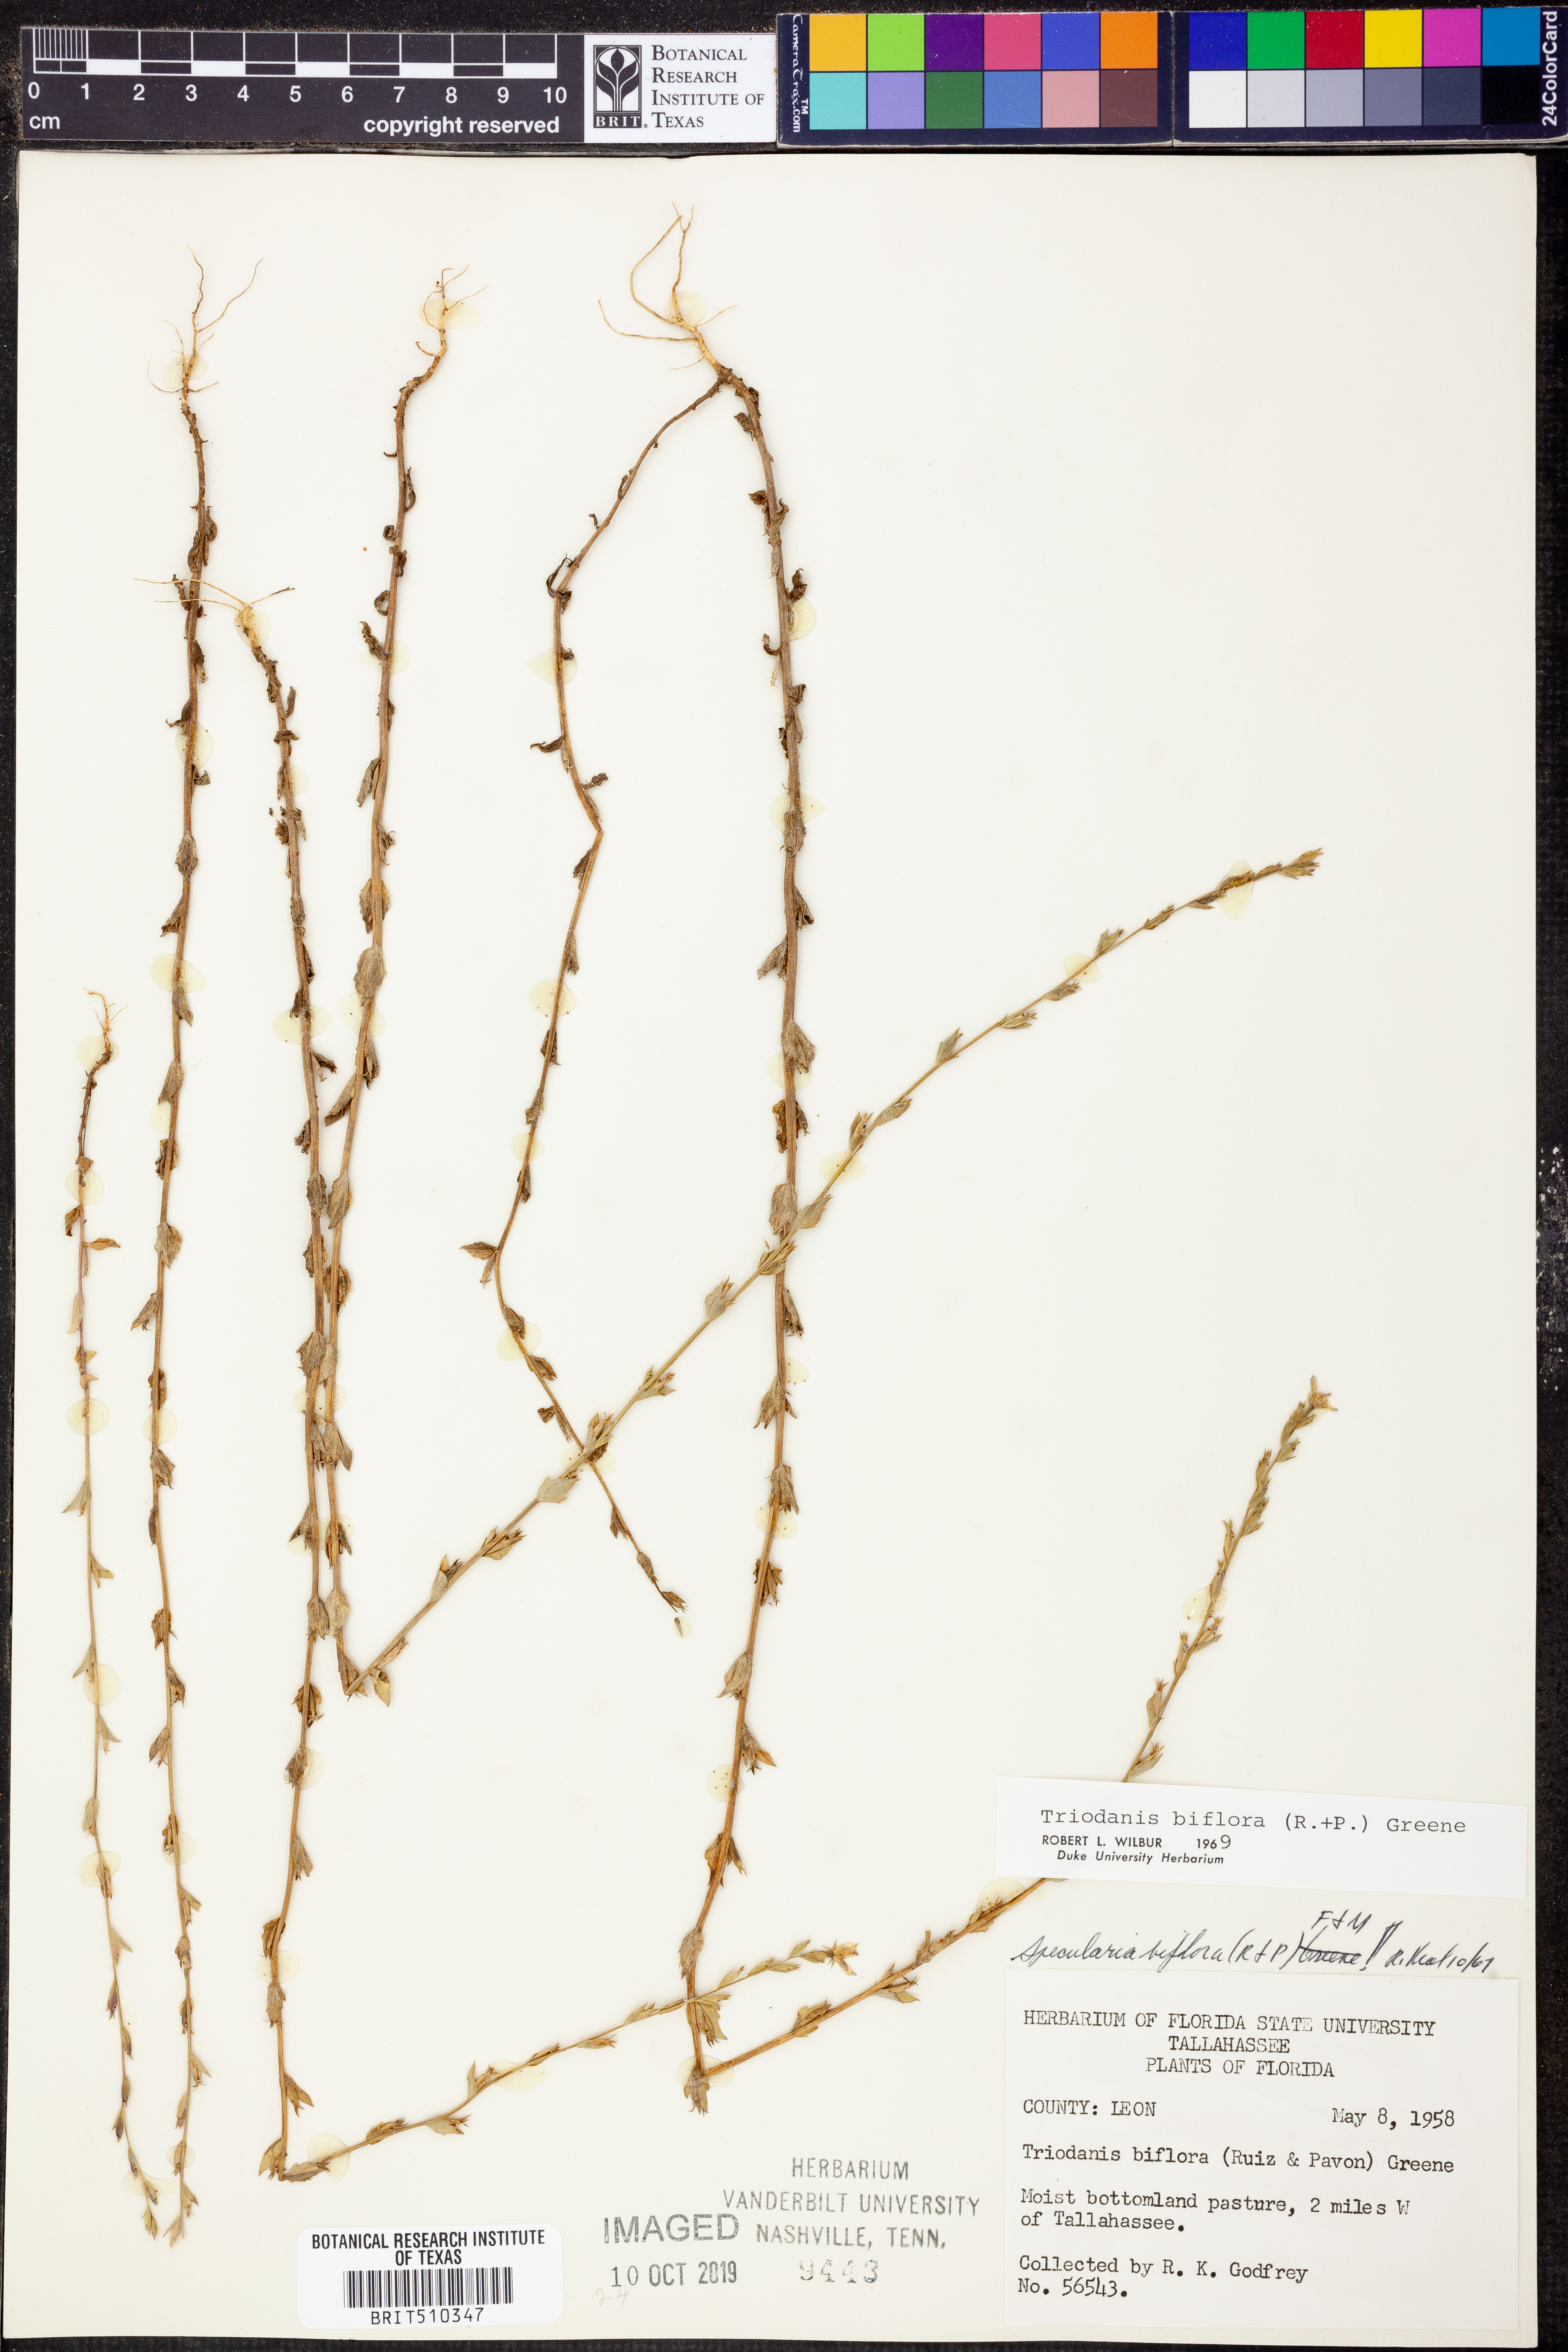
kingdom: Plantae
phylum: Tracheophyta
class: Magnoliopsida
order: Asterales
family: Campanulaceae
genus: Triodanis
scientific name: Triodanis perfoliata
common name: Clasping venus' looking-glass
